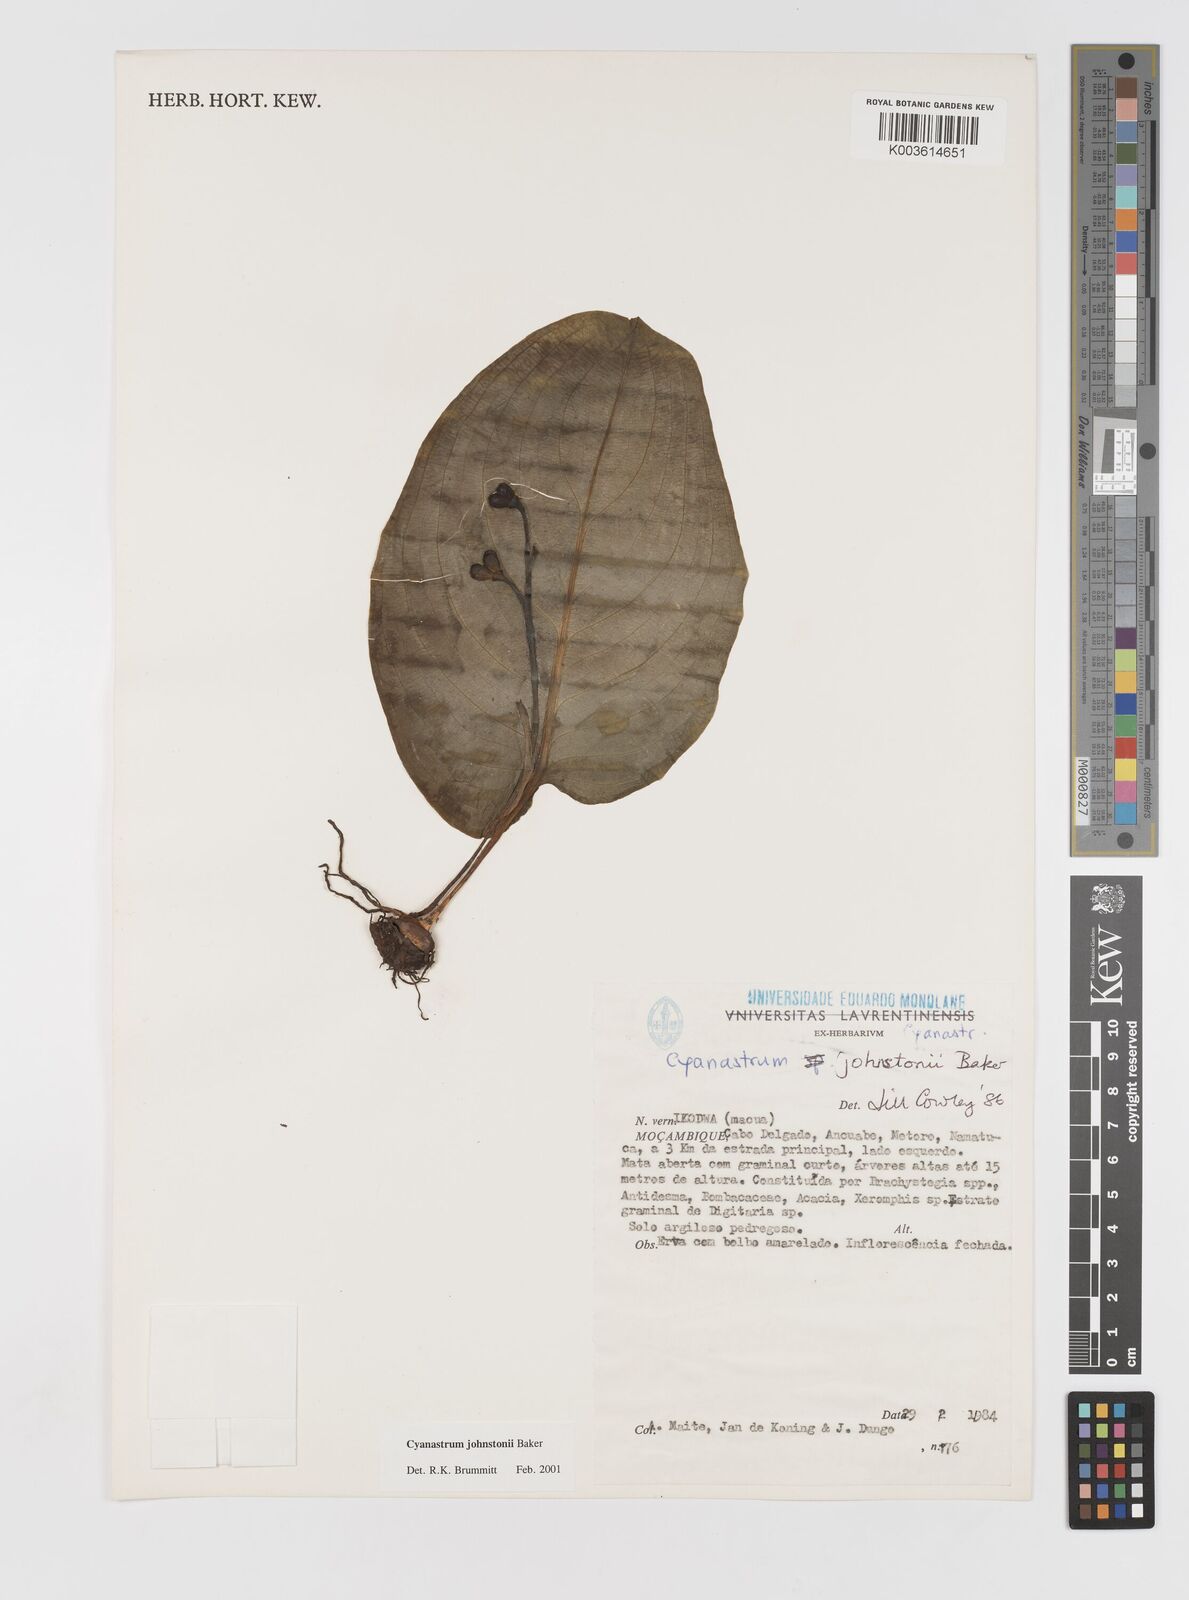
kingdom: Plantae
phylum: Tracheophyta
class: Liliopsida
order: Asparagales
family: Tecophilaeaceae
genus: Cyanastrum
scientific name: Cyanastrum johnstonii
